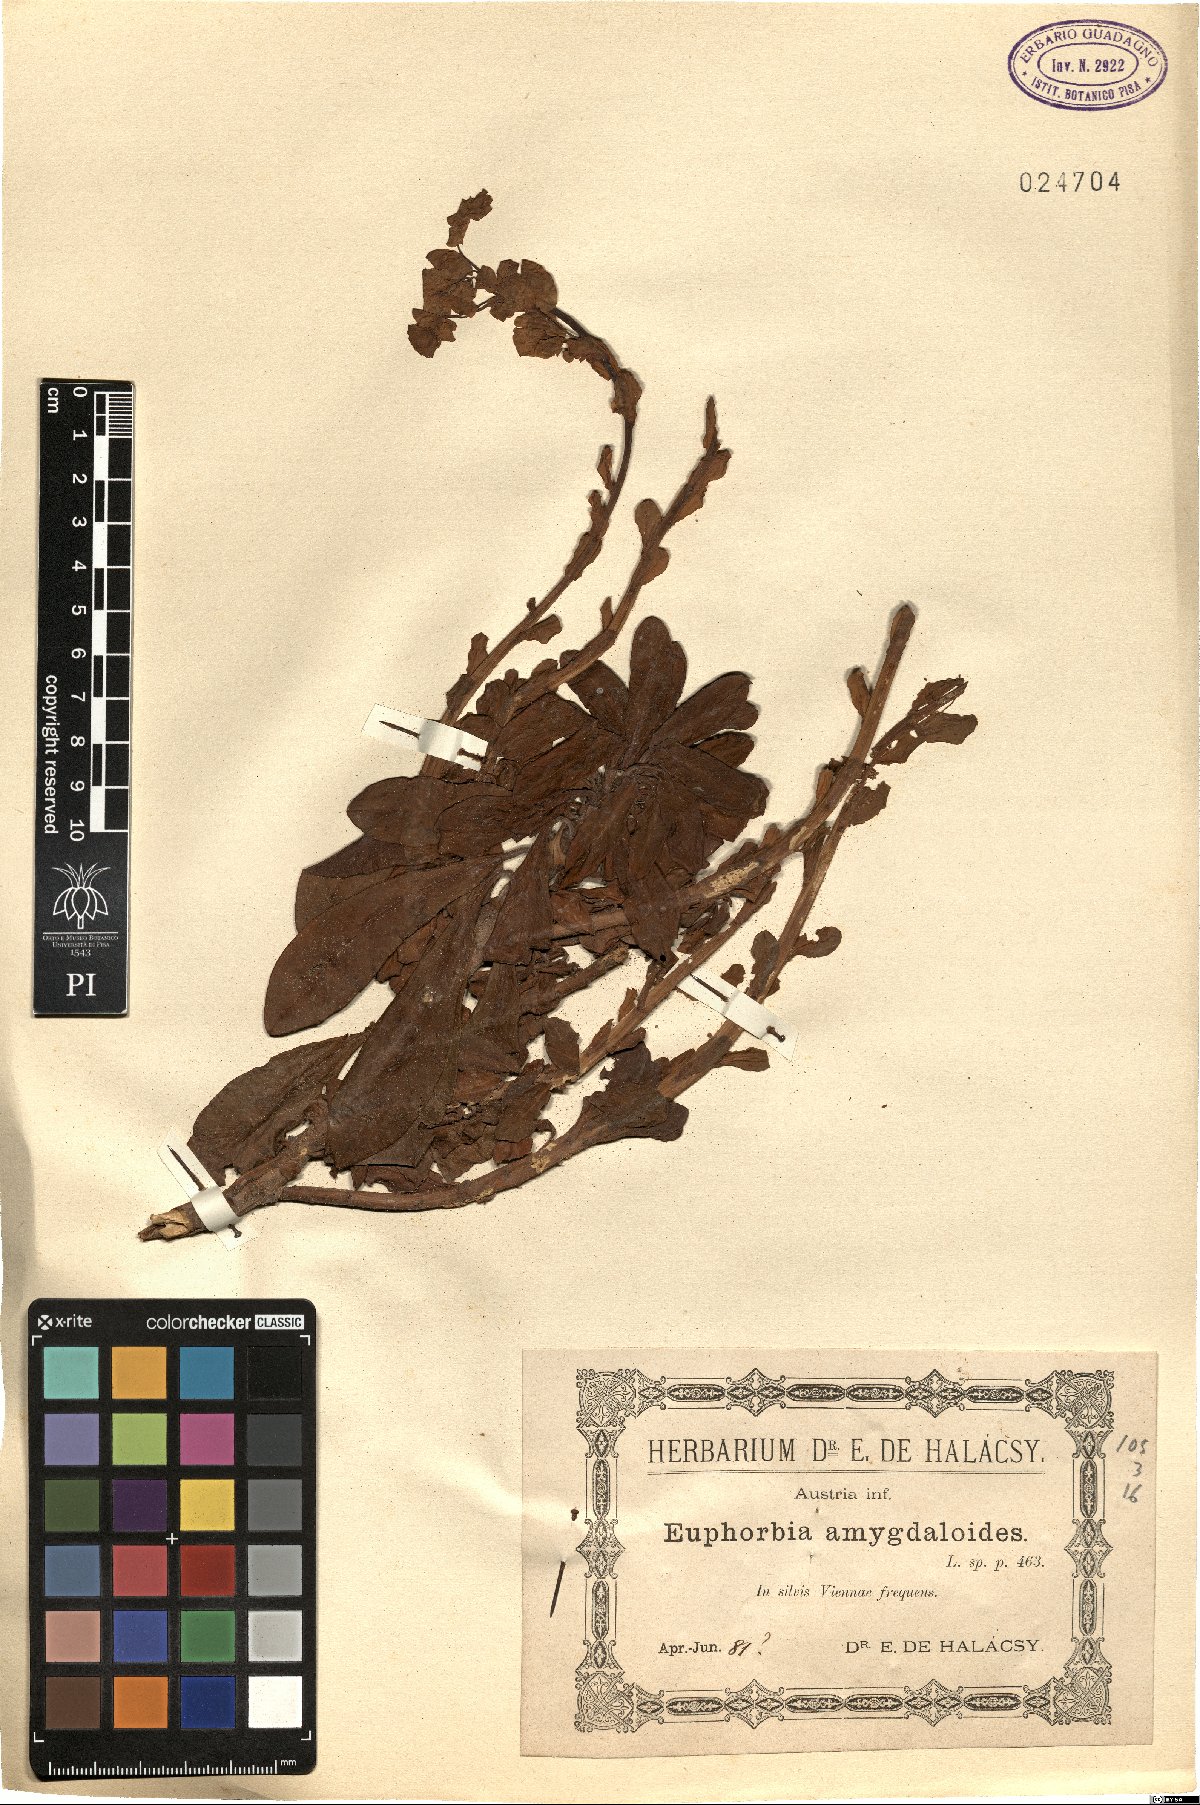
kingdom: Plantae
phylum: Tracheophyta
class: Magnoliopsida
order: Malpighiales
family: Euphorbiaceae
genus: Euphorbia
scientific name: Euphorbia amygdaloides
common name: Wood spurge
